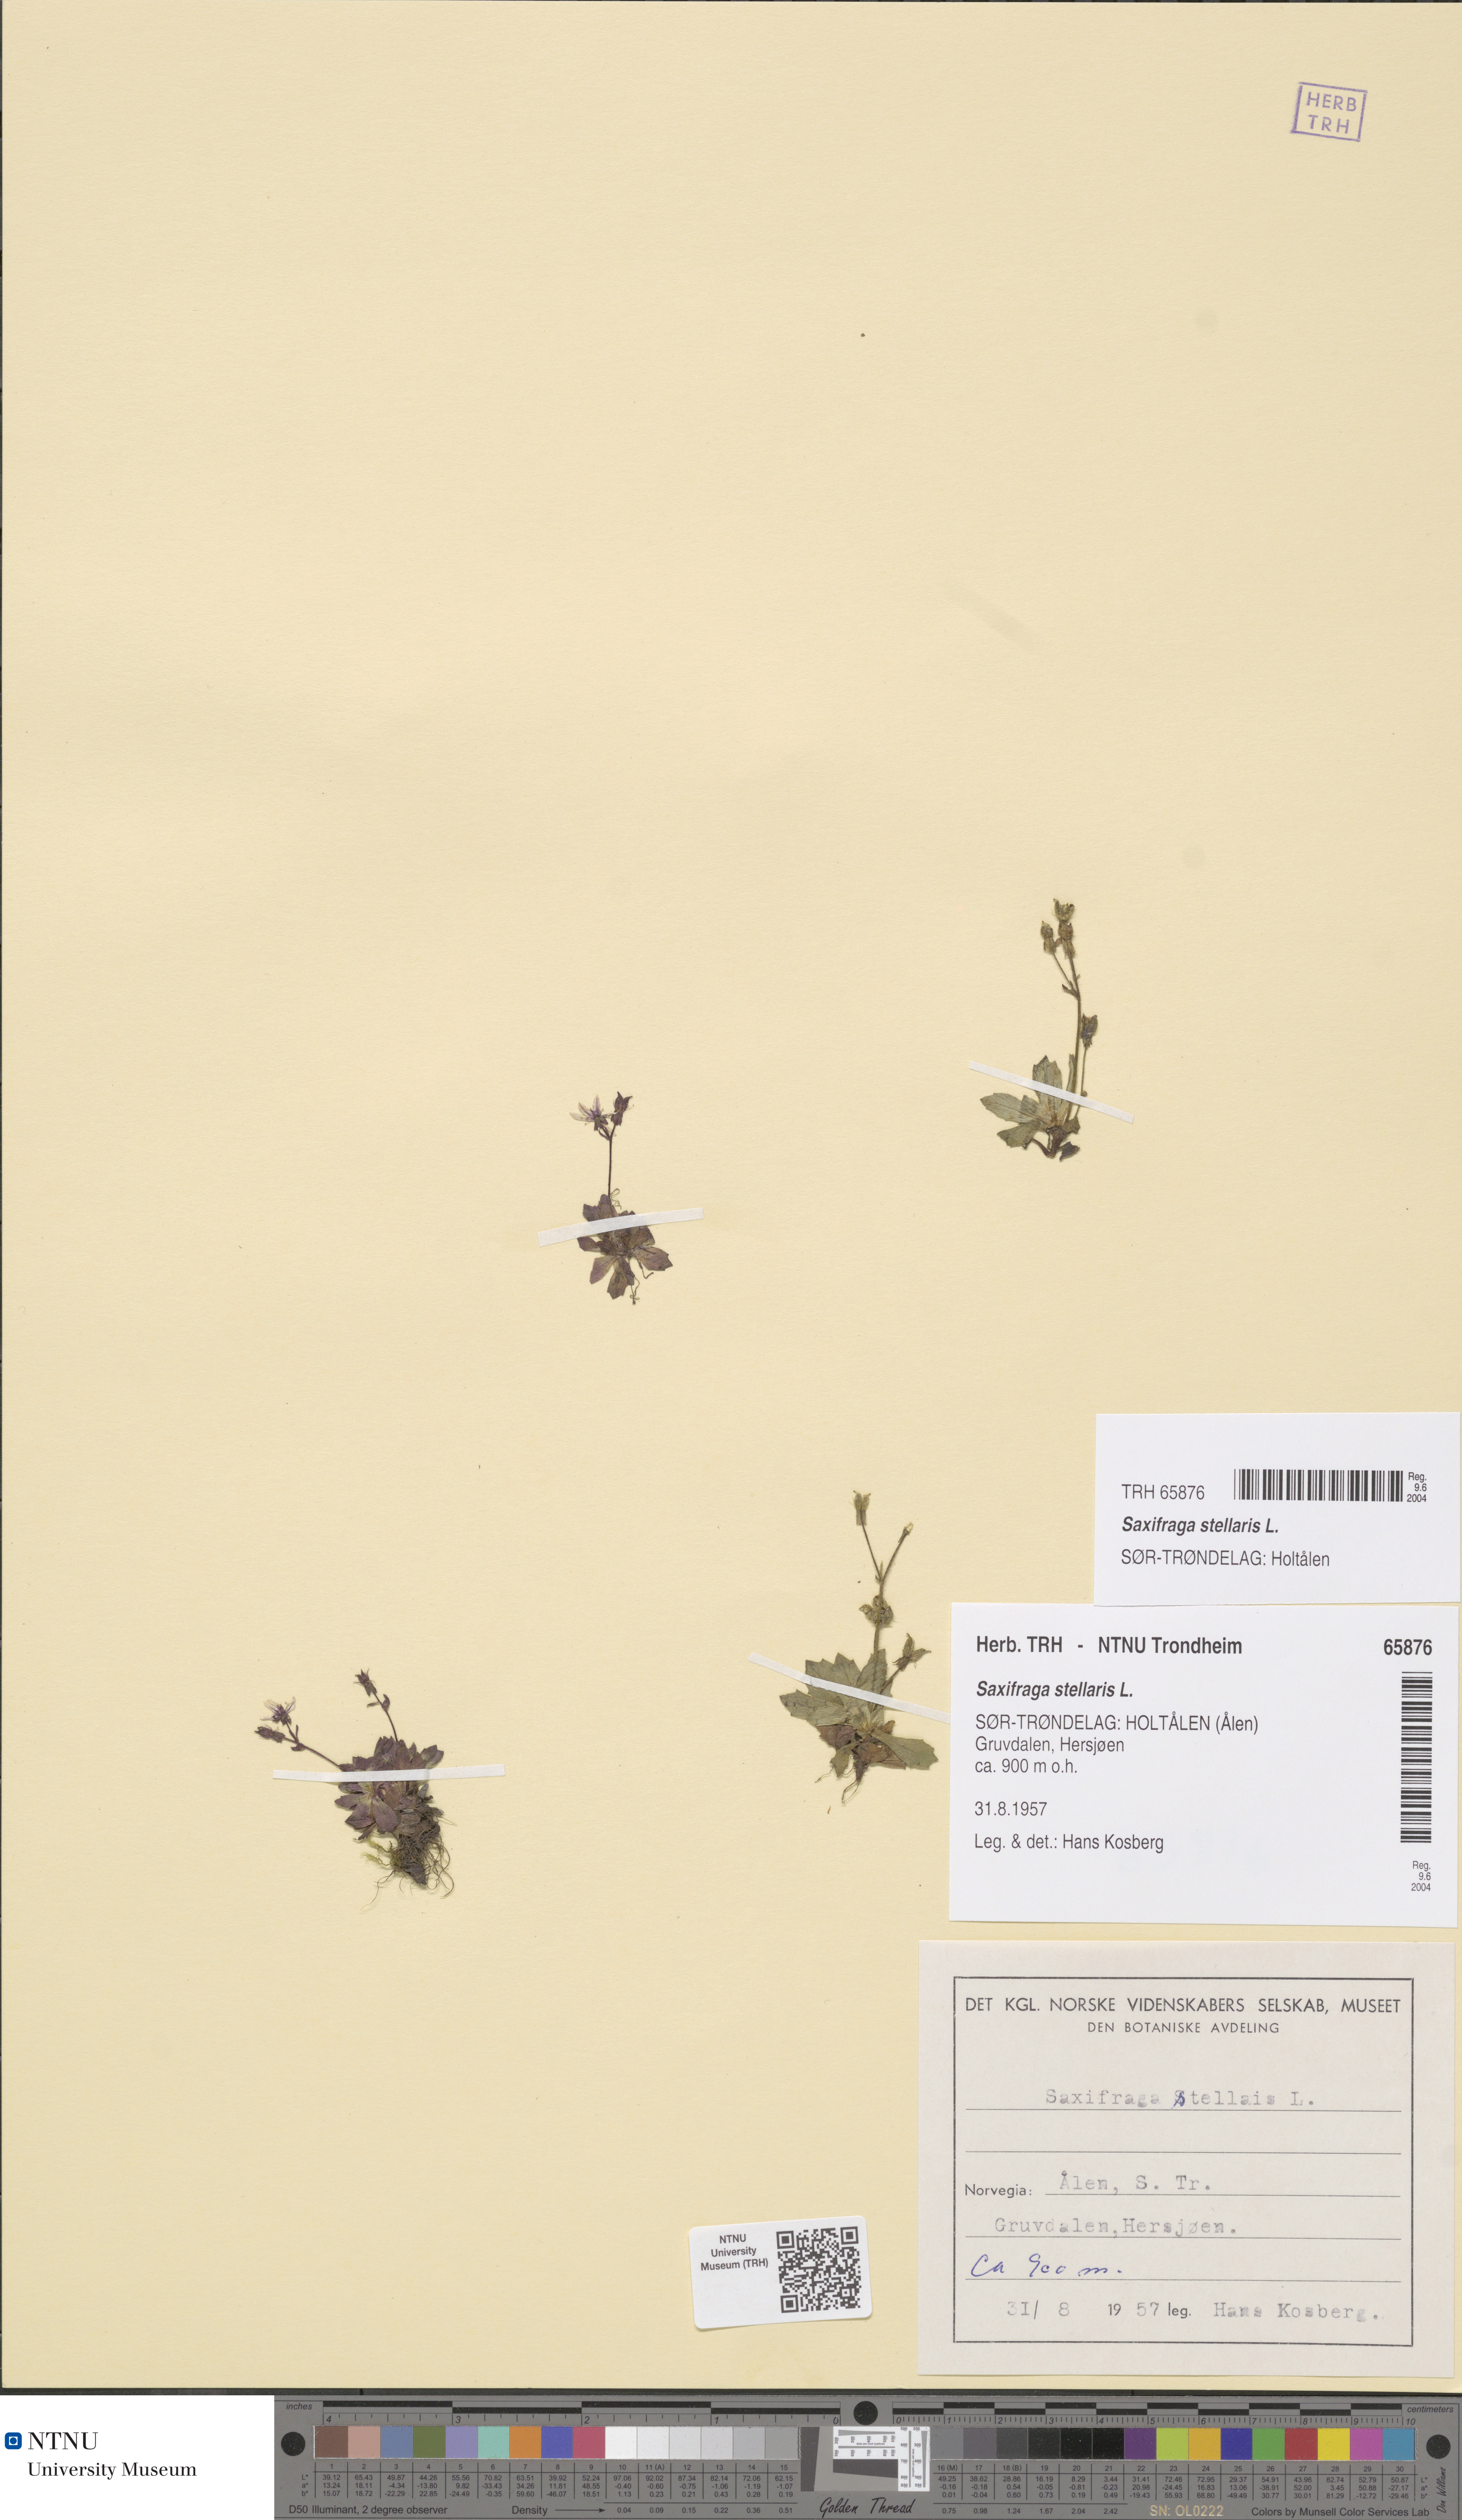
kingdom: Plantae
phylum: Tracheophyta
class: Magnoliopsida
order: Saxifragales
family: Saxifragaceae
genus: Micranthes
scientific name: Micranthes stellaris
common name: Starry saxifrage
